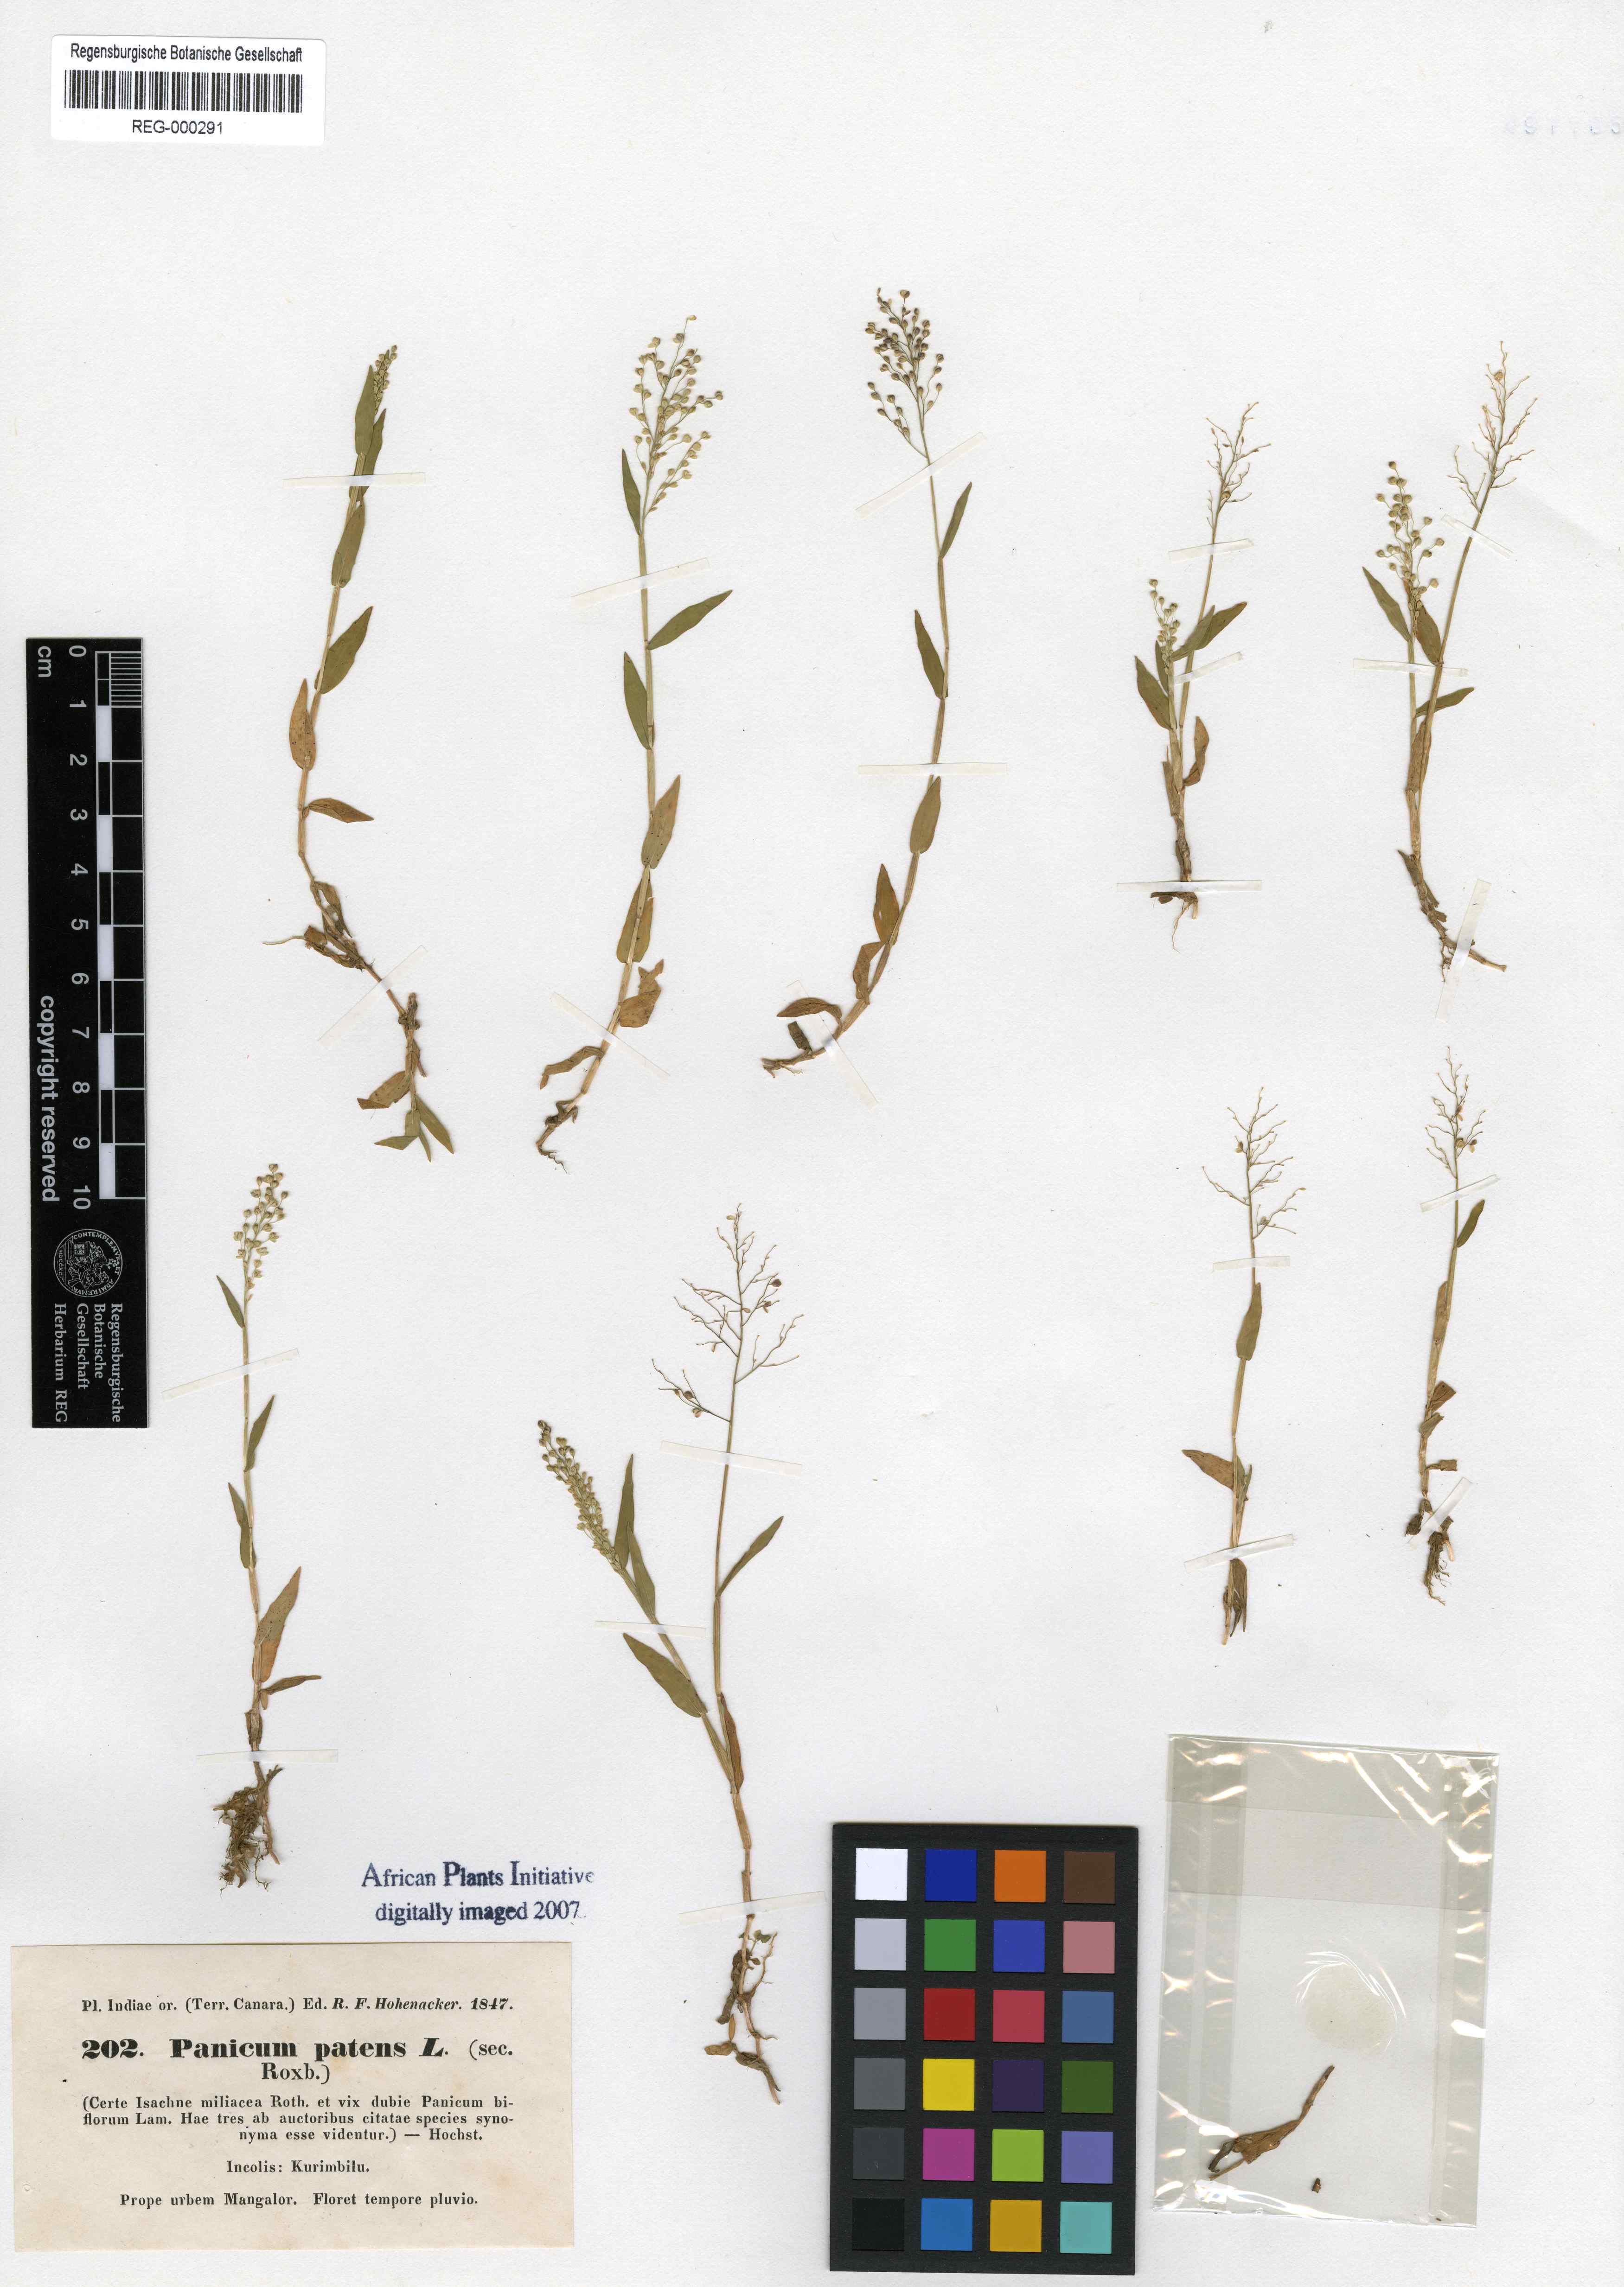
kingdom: Plantae
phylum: Tracheophyta
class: Liliopsida
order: Poales
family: Poaceae
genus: Cyrtococcum
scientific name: Cyrtococcum patens
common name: Broad-leaved bowgrass
